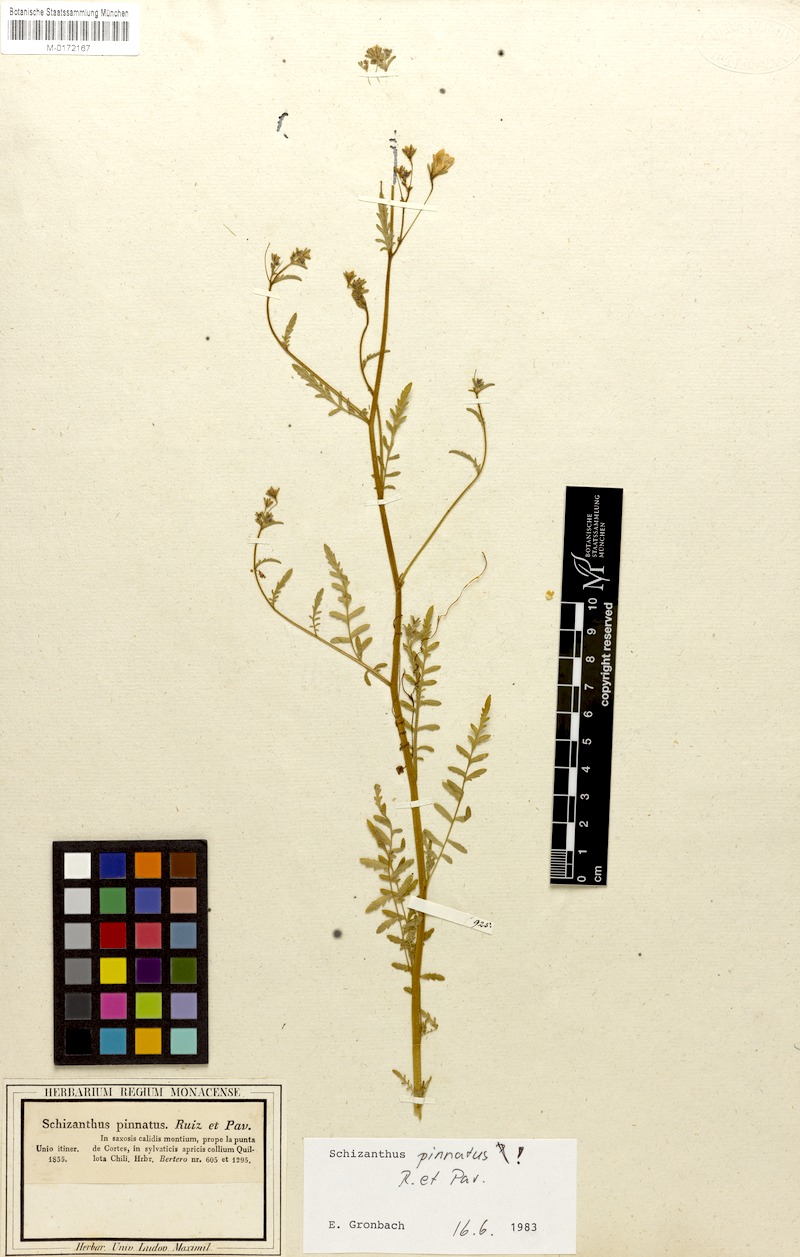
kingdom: Plantae
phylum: Tracheophyta
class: Magnoliopsida
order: Solanales
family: Solanaceae
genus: Schizanthus
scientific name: Schizanthus pinnatus
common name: Poor-man's-orchid
